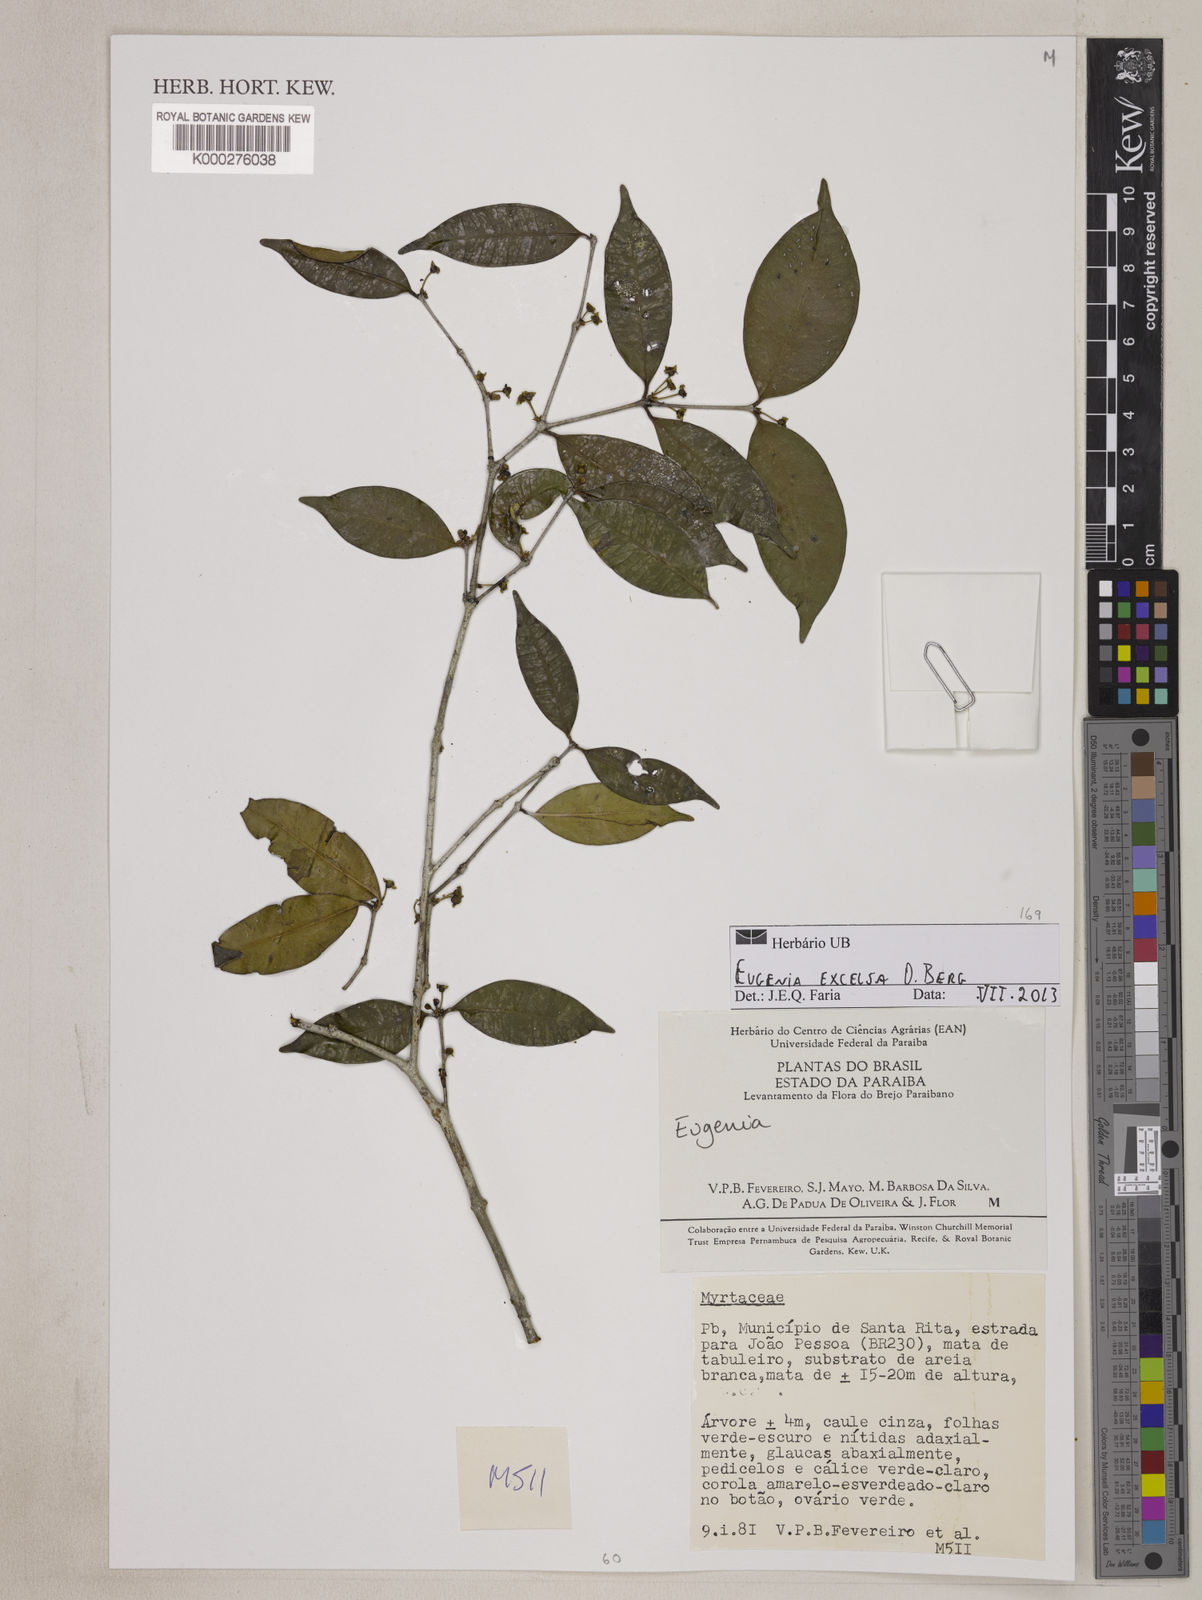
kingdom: Plantae
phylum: Tracheophyta
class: Magnoliopsida
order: Myrtales
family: Myrtaceae
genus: Eugenia
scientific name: Eugenia excelsa
